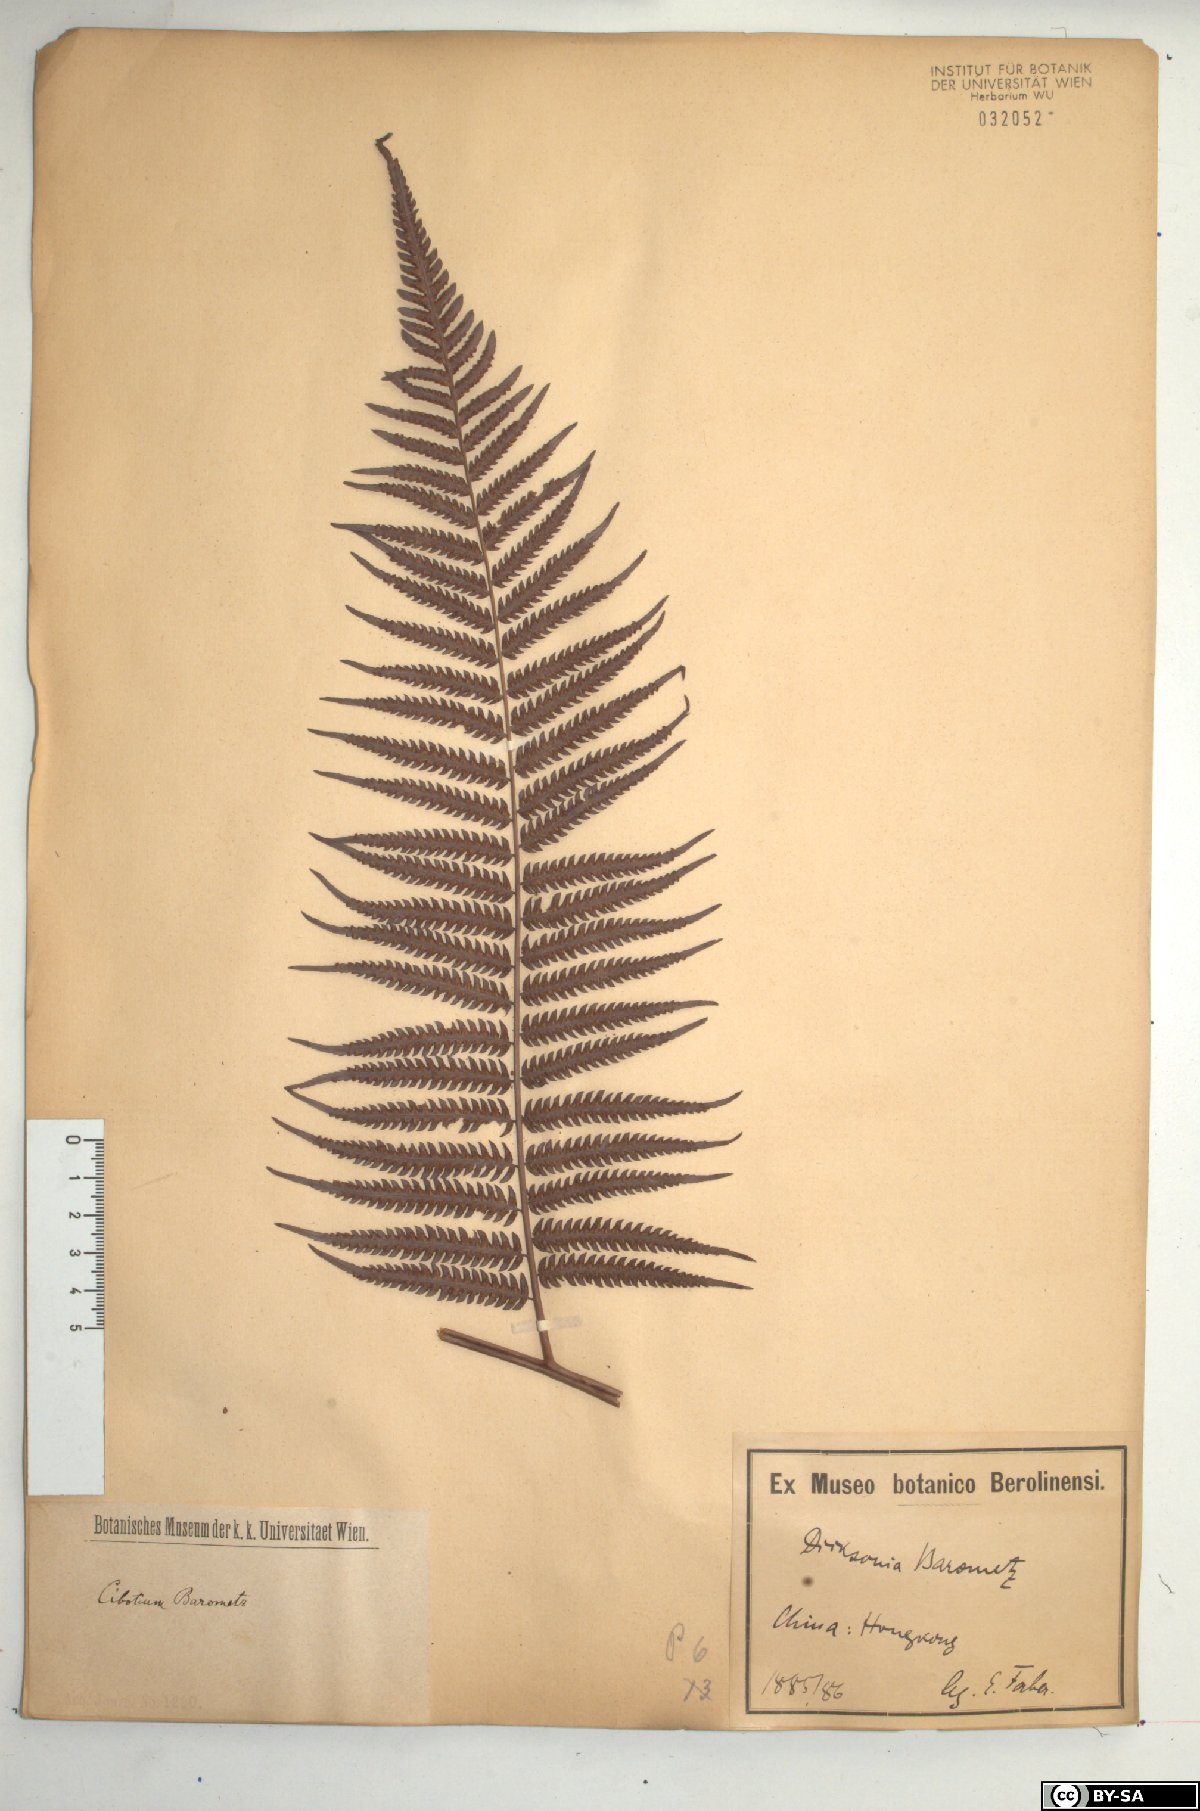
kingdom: Plantae
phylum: Tracheophyta
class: Polypodiopsida
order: Cyatheales
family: Cibotiaceae
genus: Cibotium
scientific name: Cibotium barometz
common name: Scythian-lamb
